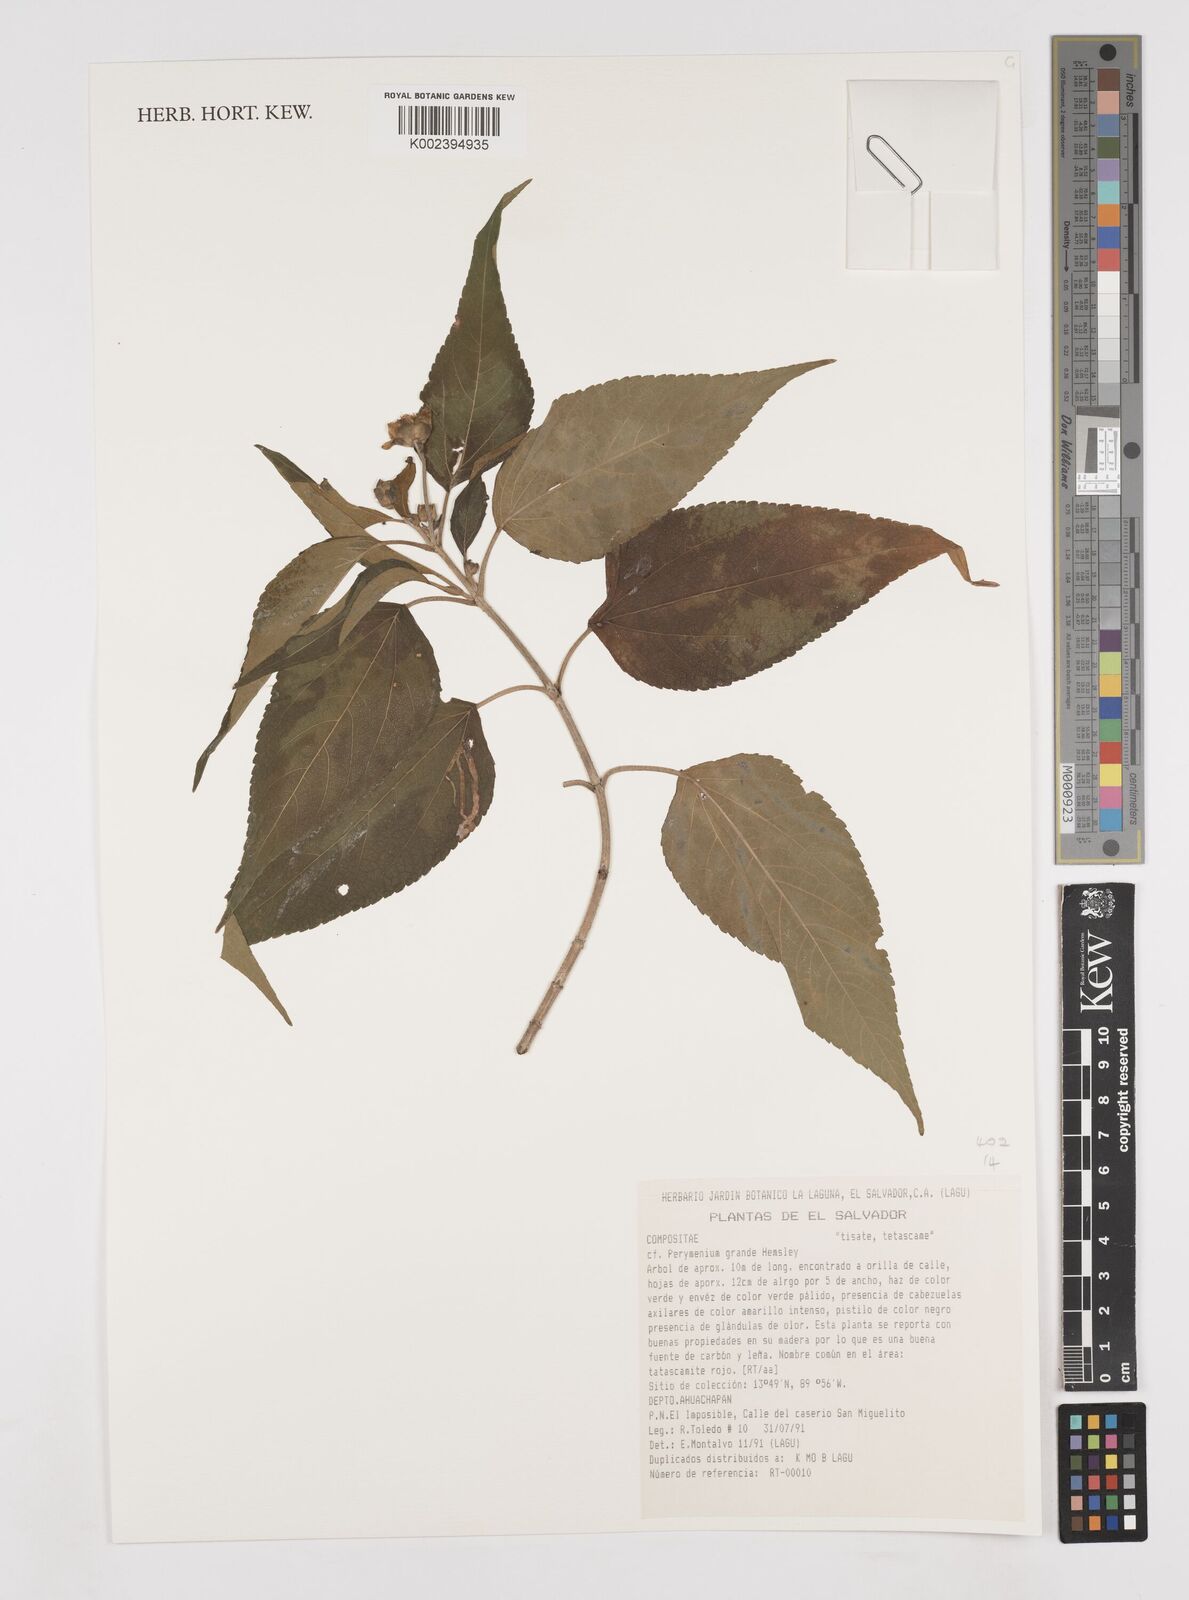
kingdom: Plantae
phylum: Tracheophyta
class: Magnoliopsida
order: Asterales
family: Asteraceae
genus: Perymenium
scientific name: Perymenium grande
